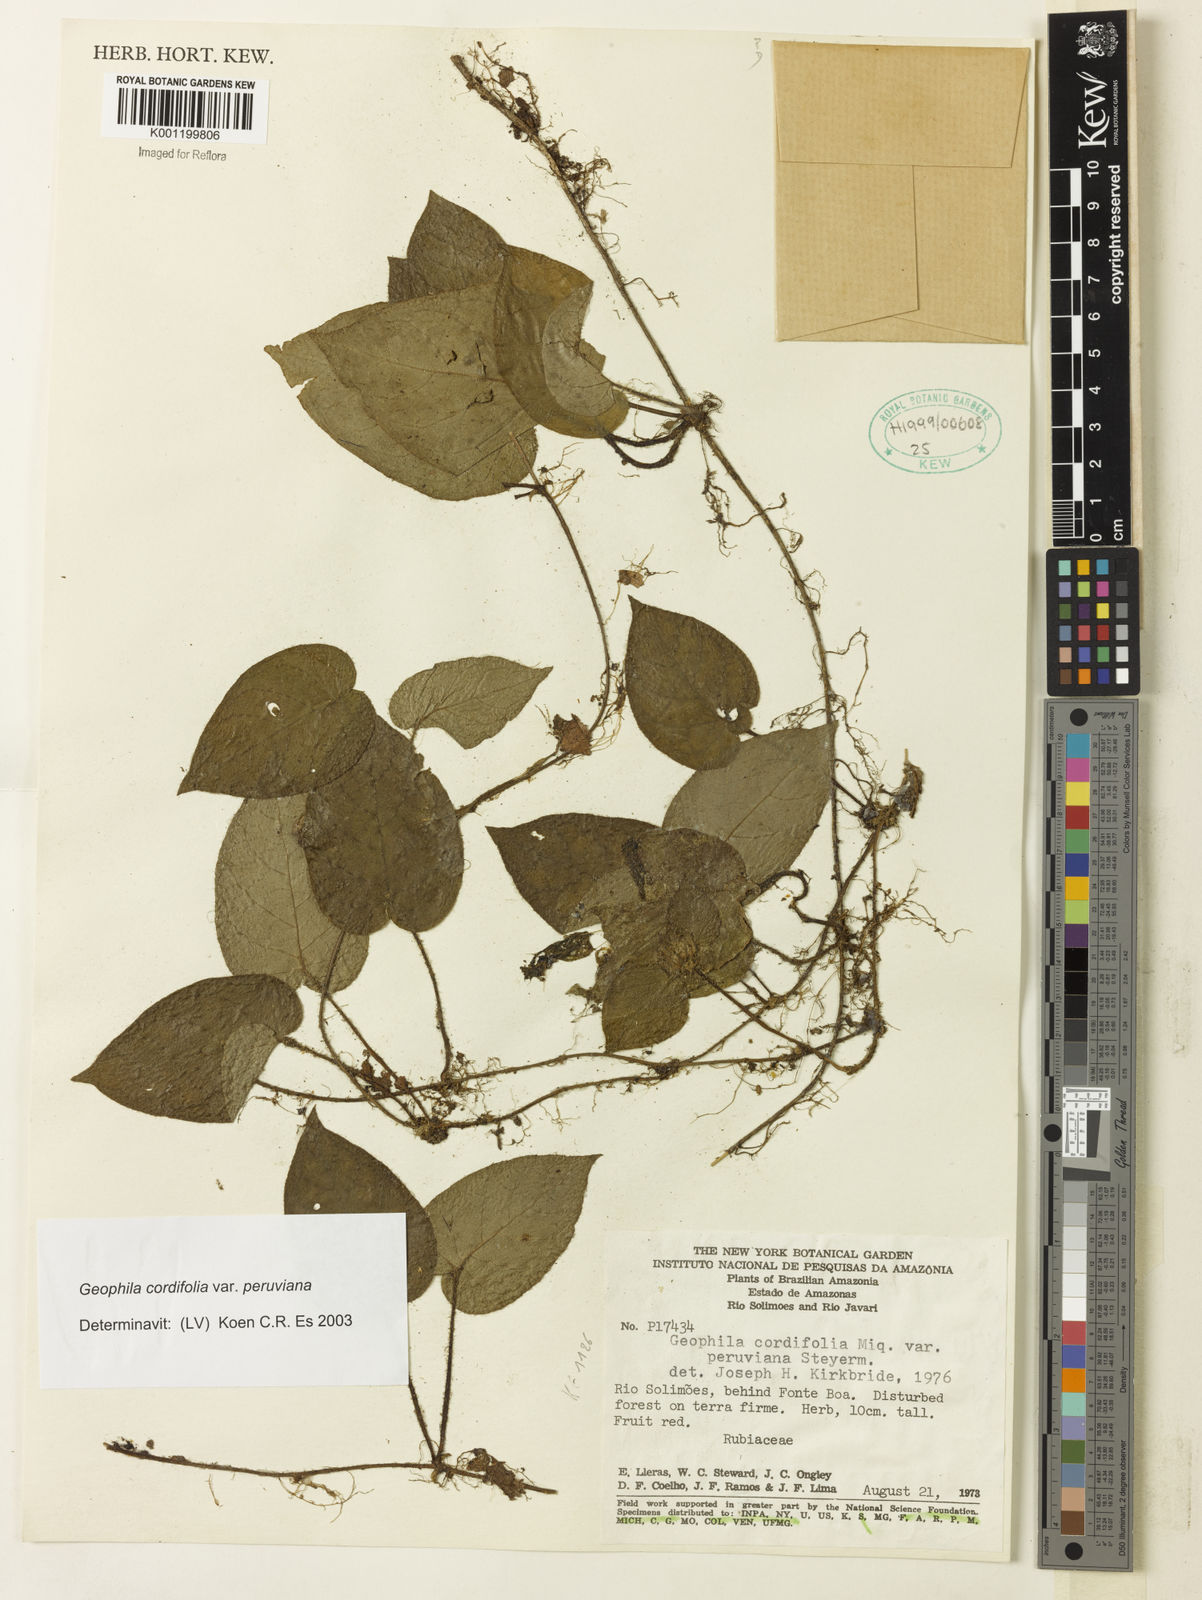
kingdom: Plantae
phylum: Tracheophyta
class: Magnoliopsida
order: Gentianales
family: Rubiaceae
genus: Geophila
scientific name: Geophila cordifolia
